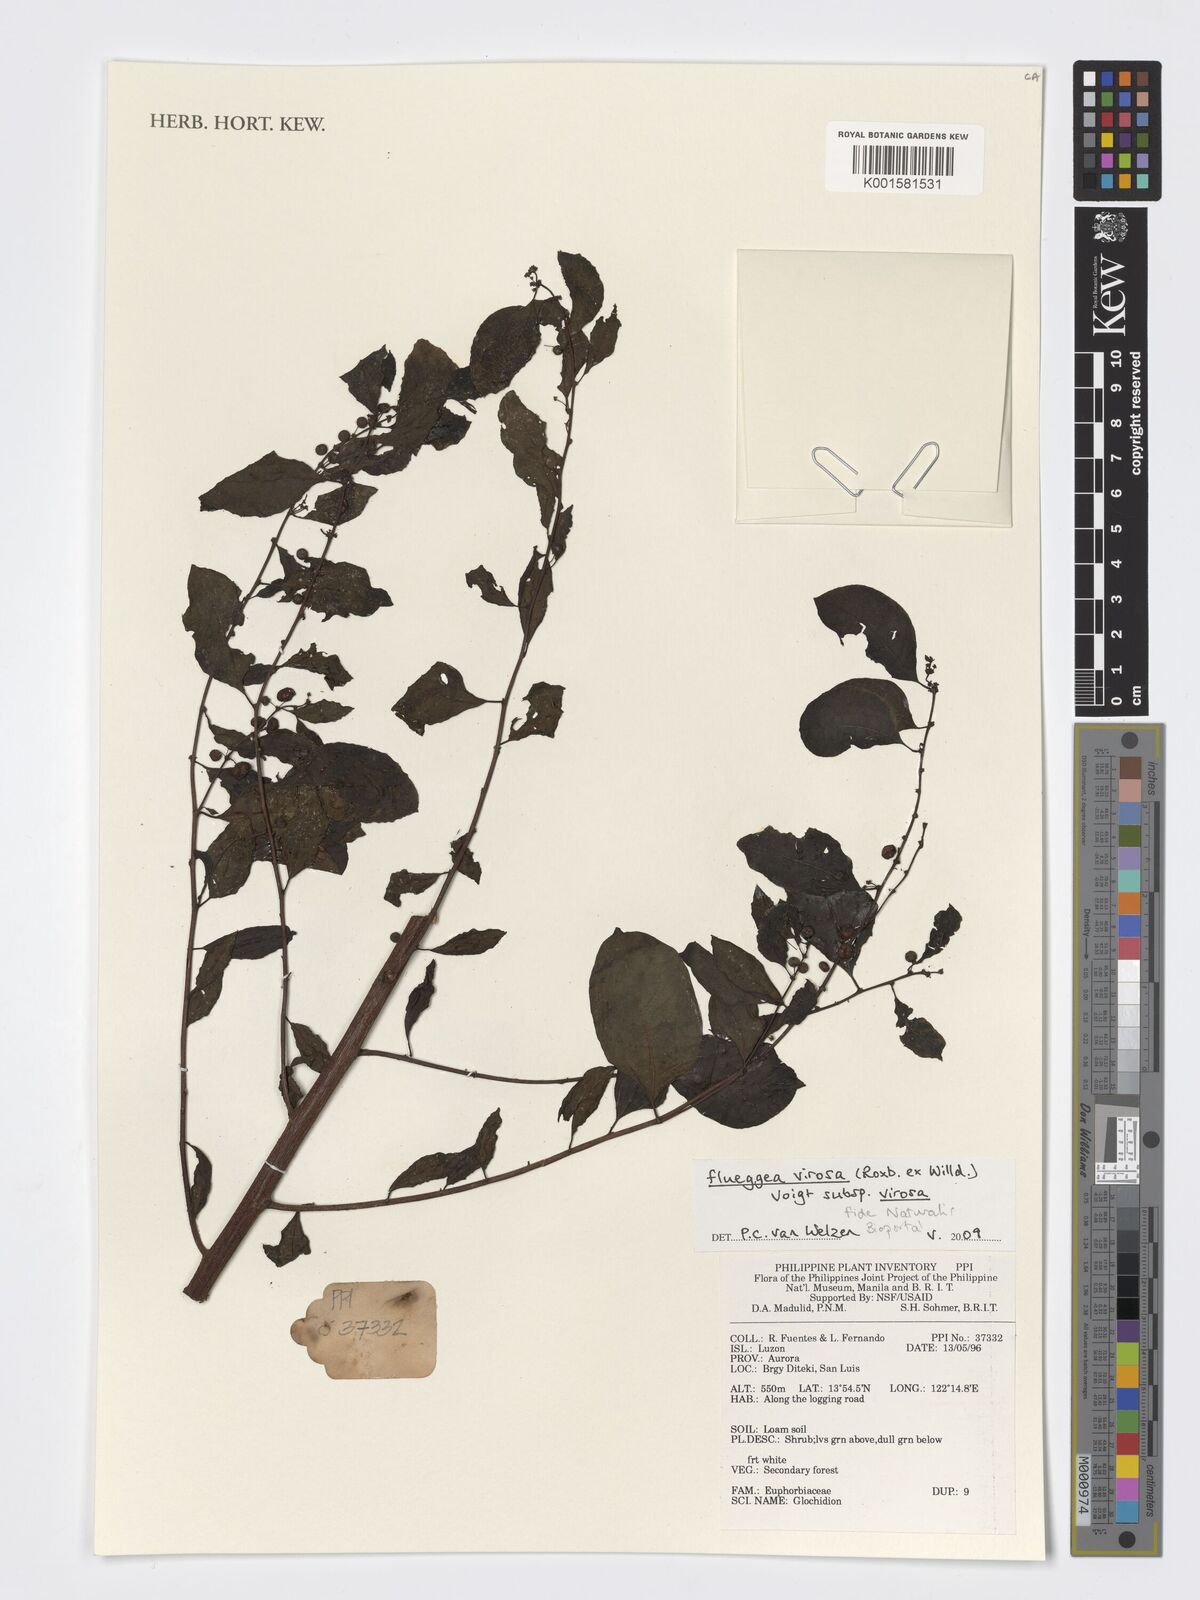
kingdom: Plantae
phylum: Tracheophyta
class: Magnoliopsida
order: Malpighiales
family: Phyllanthaceae
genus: Flueggea
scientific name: Flueggea virosa
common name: Common bushweed
